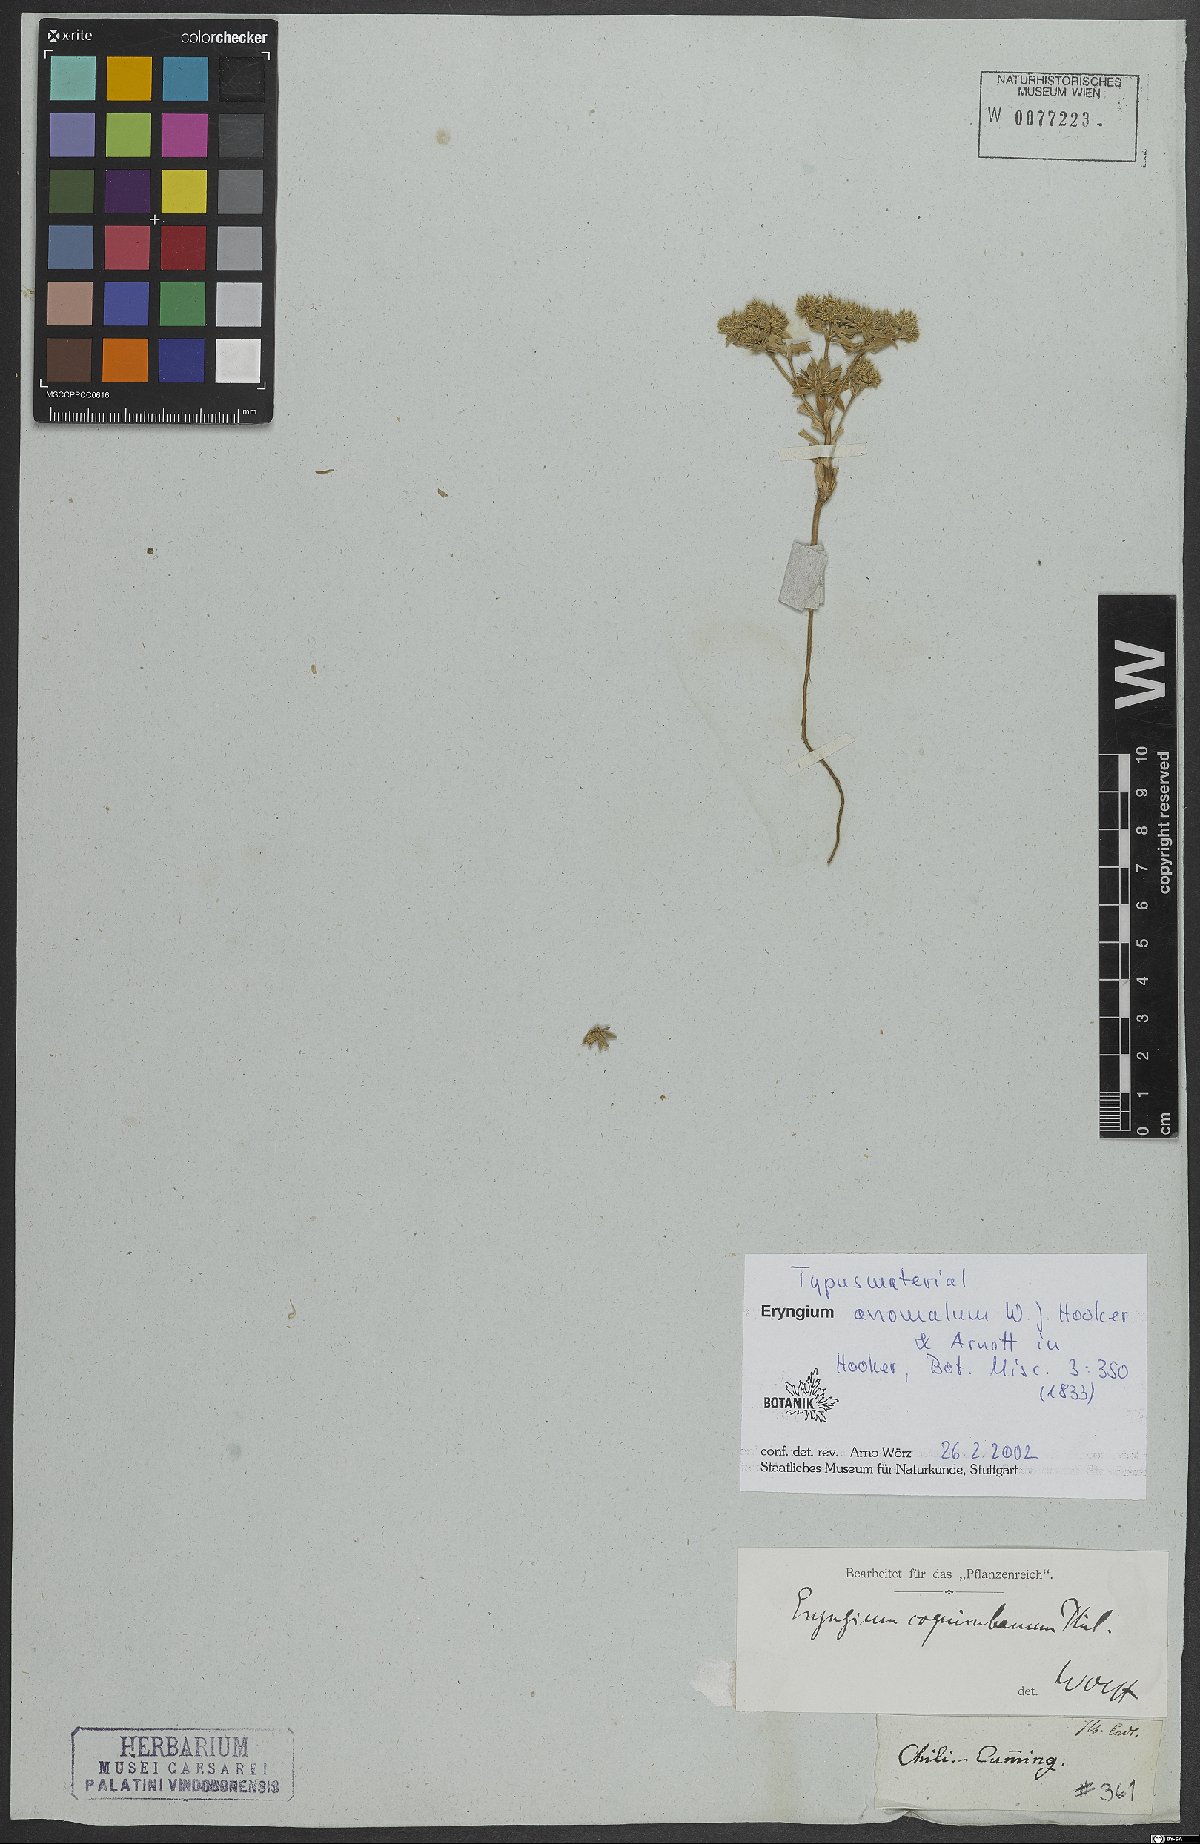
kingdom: Plantae
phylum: Tracheophyta
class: Magnoliopsida
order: Apiales
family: Apiaceae
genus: Eryngium
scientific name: Eryngium anomalum
